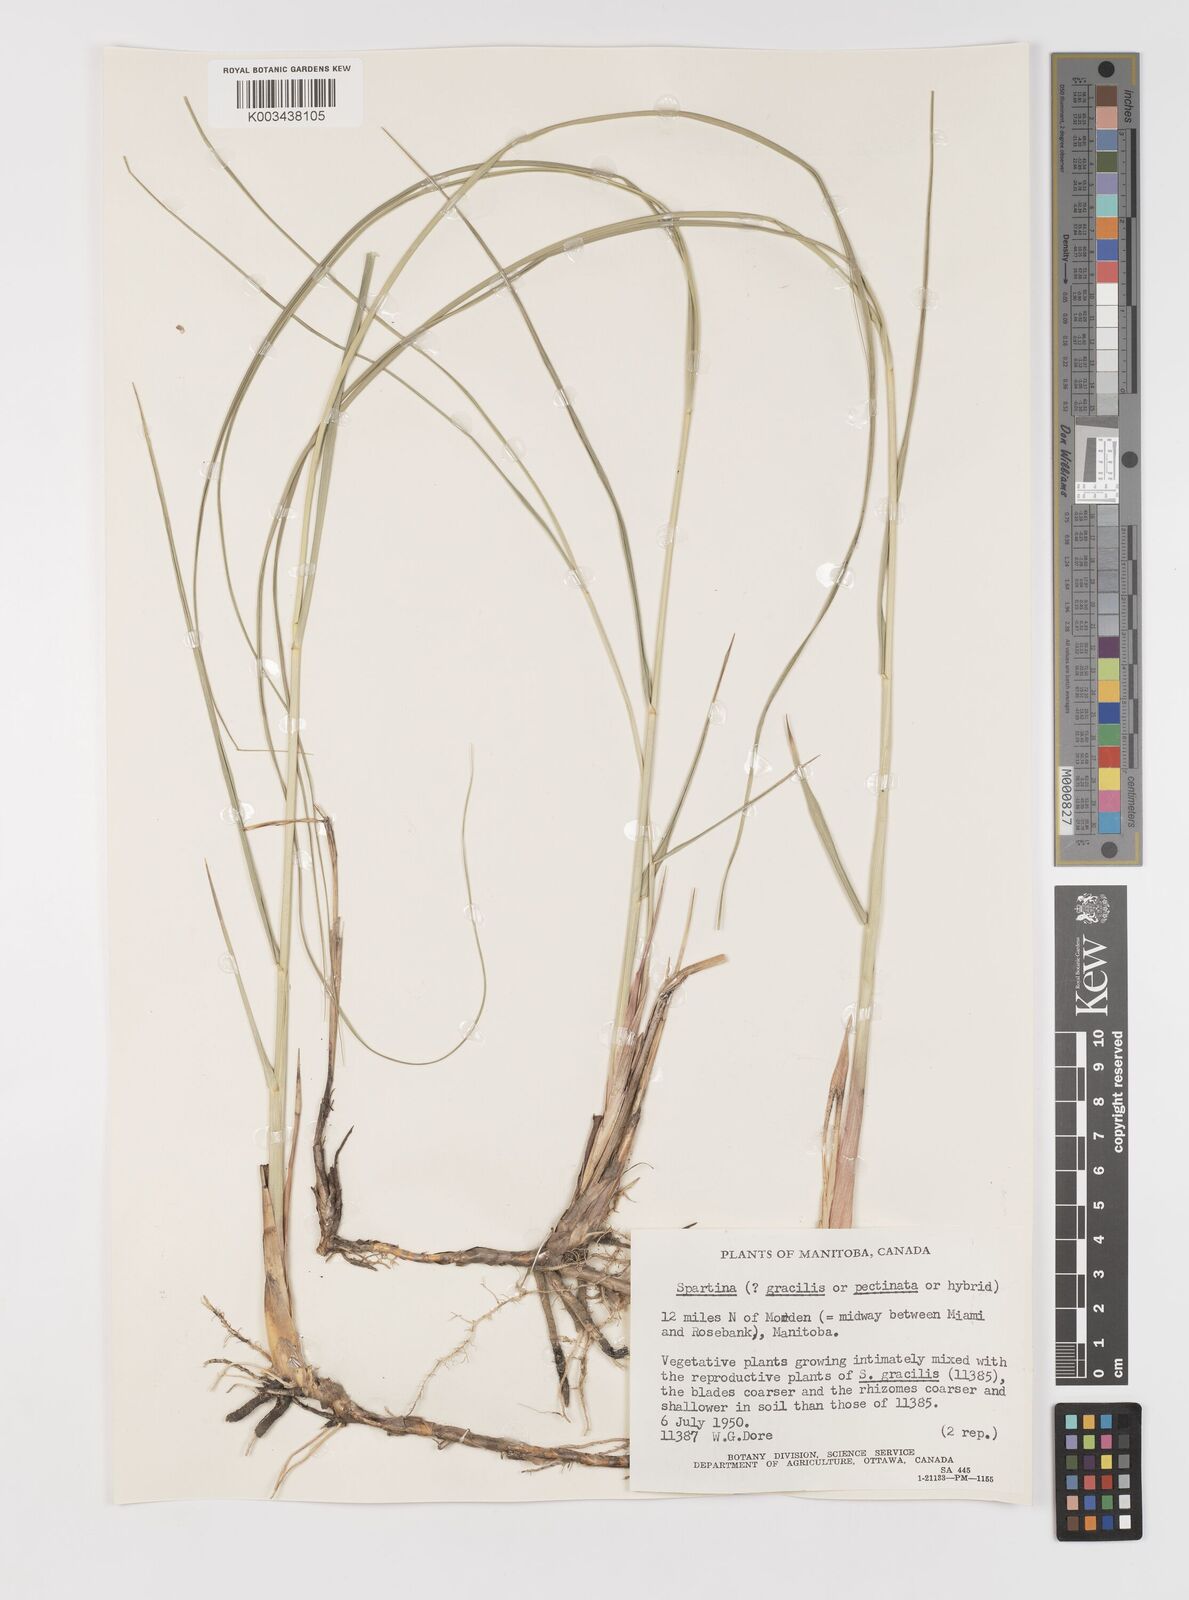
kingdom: Plantae
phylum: Tracheophyta
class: Liliopsida
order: Poales
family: Poaceae
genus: Sporobolus
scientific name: Sporobolus hookerianus
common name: Alkali cordgrass
